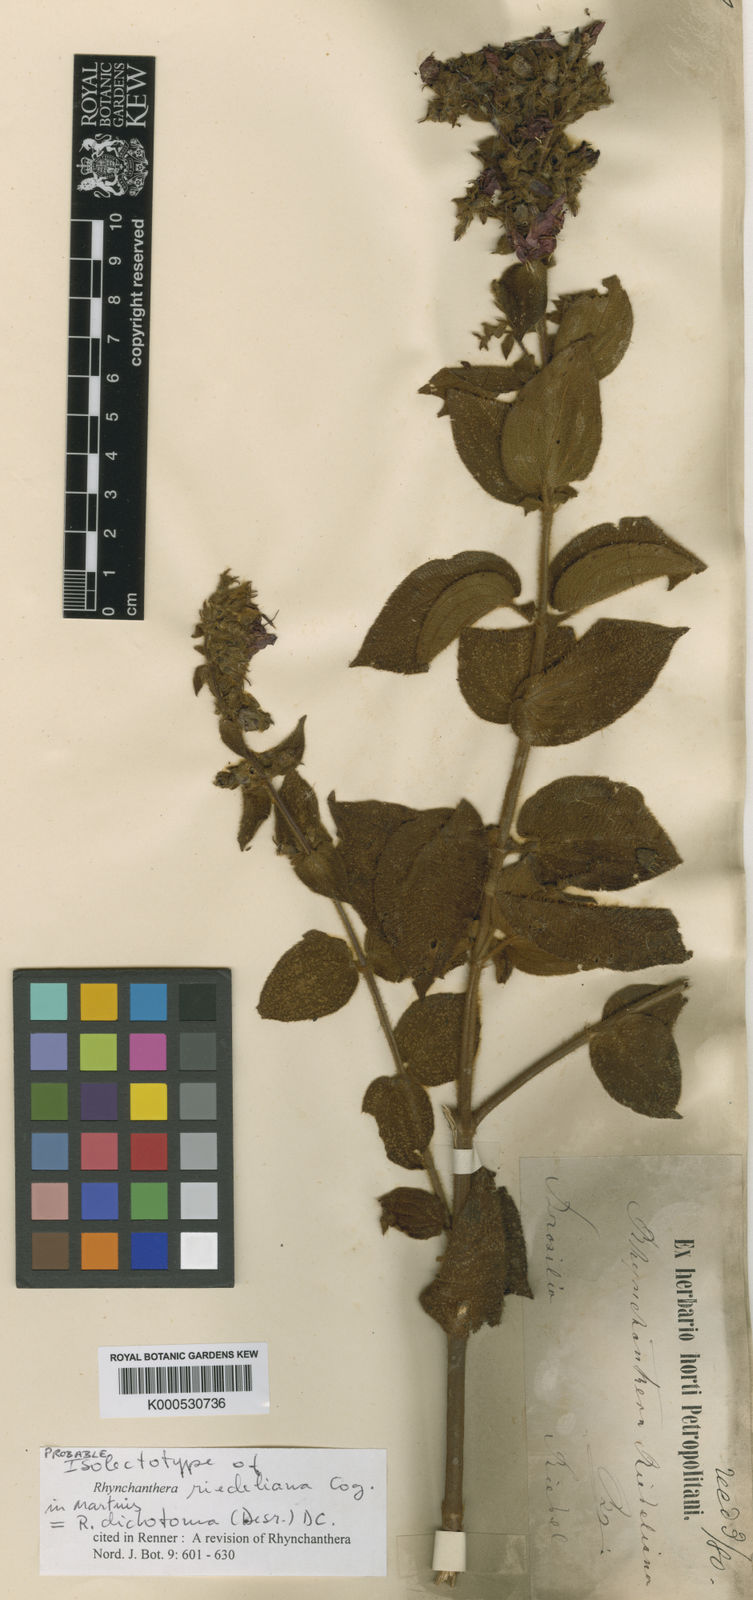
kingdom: Plantae
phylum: Tracheophyta
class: Magnoliopsida
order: Myrtales
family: Melastomataceae
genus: Rhynchanthera
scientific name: Rhynchanthera dichotoma
